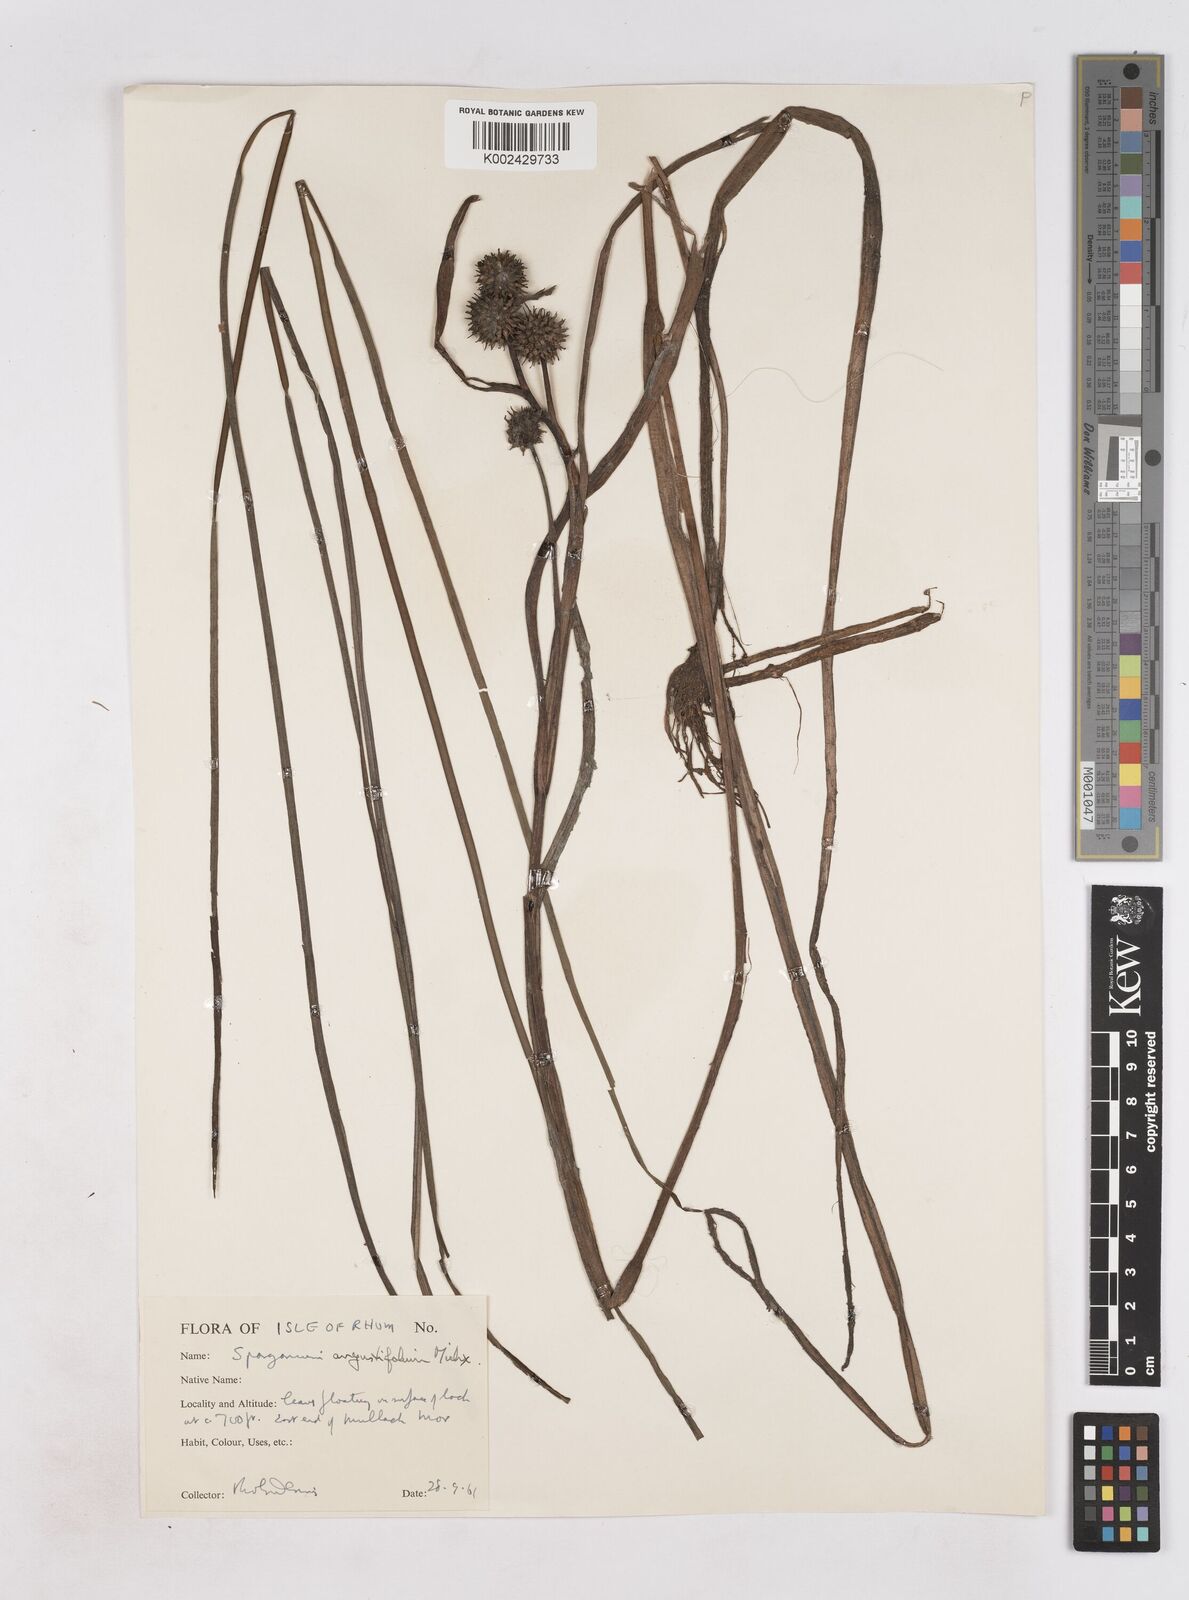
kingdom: Plantae
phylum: Tracheophyta
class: Liliopsida
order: Poales
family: Typhaceae
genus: Sparganium
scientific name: Sparganium angustifolium
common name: Floating bur-reed
